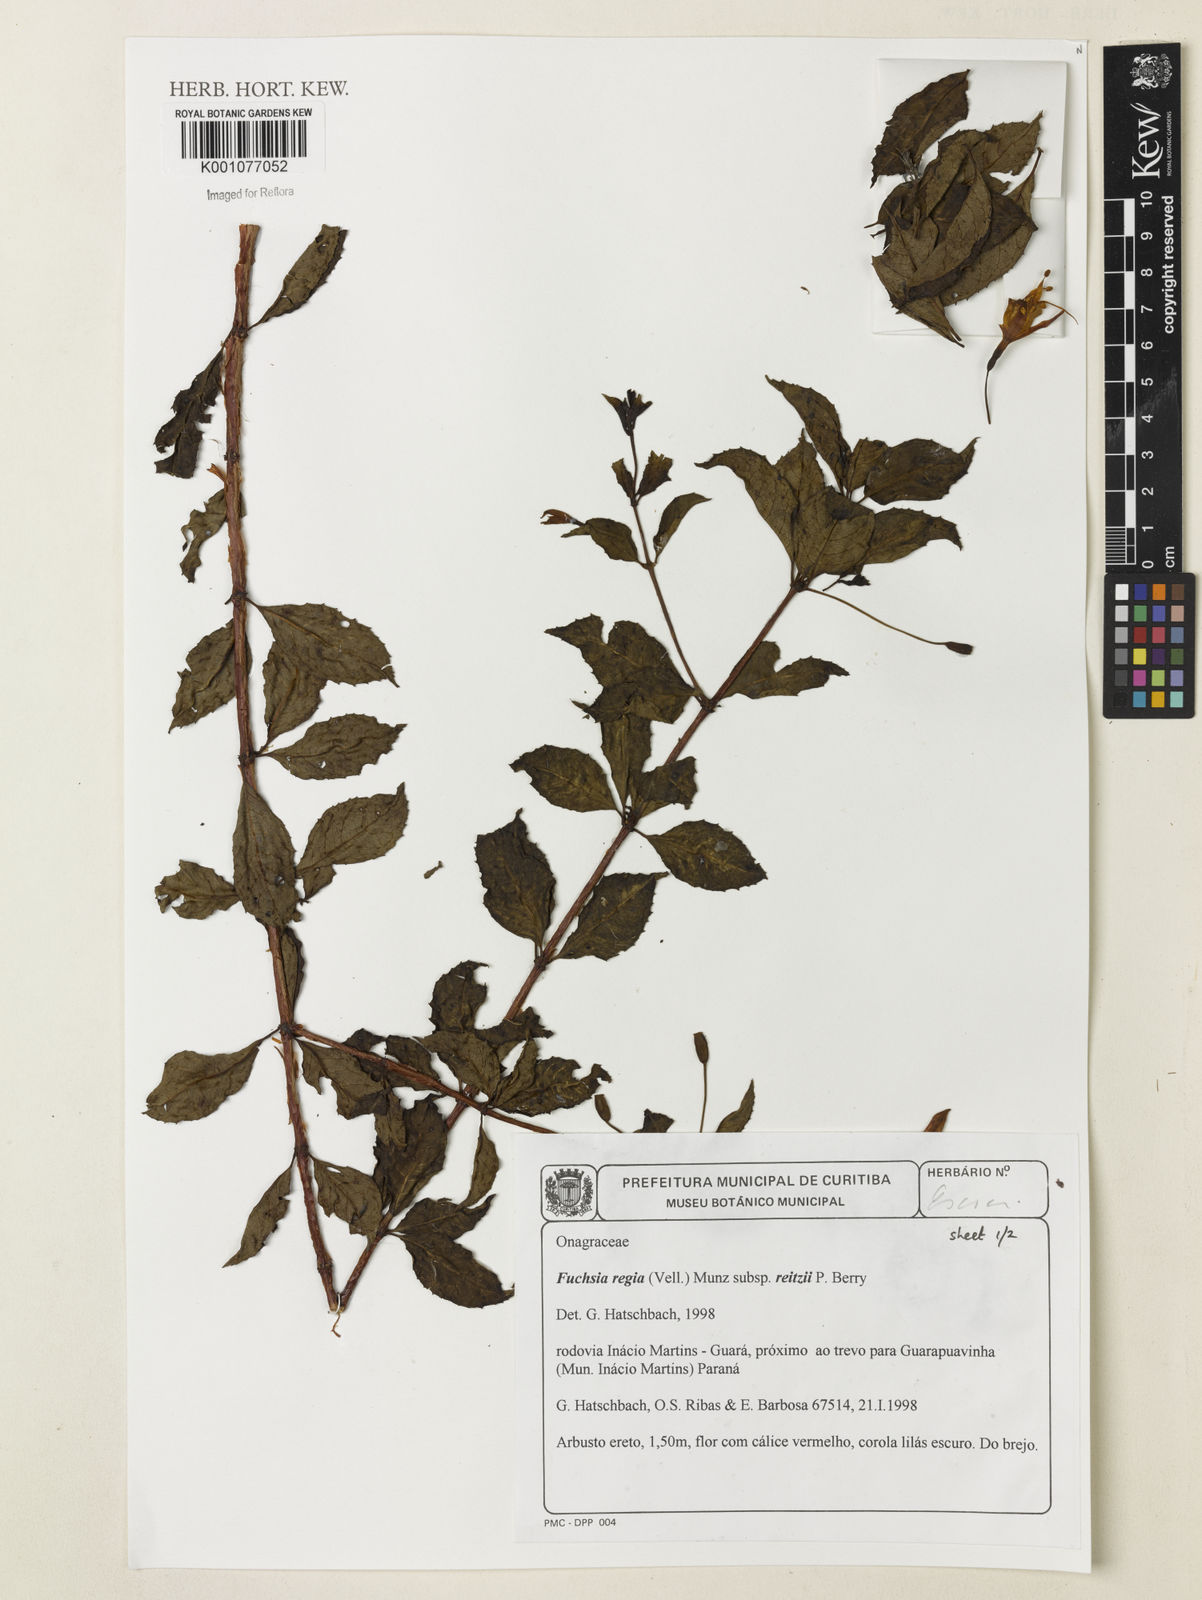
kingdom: Plantae
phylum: Tracheophyta
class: Magnoliopsida
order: Myrtales
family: Onagraceae
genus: Fuchsia
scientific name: Fuchsia regia
